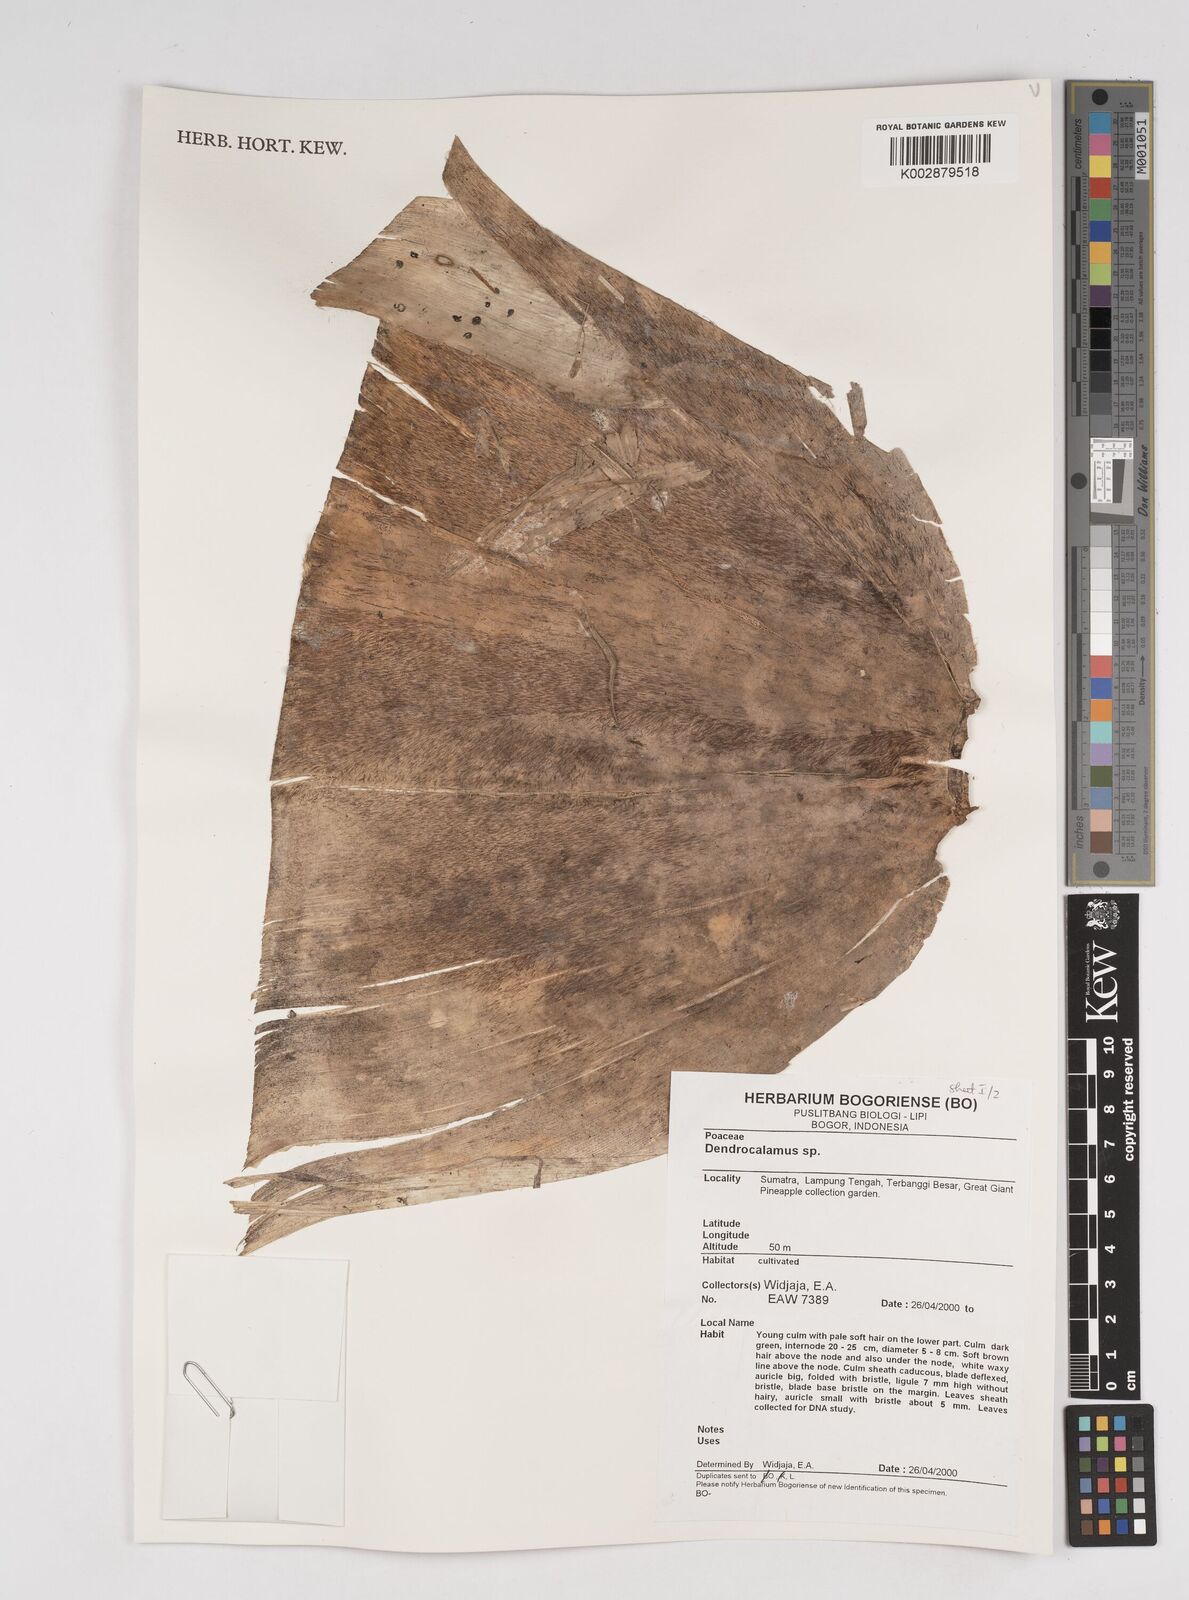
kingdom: Plantae
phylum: Tracheophyta
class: Liliopsida
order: Poales
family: Poaceae
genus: Dendrocalamus
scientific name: Dendrocalamus
